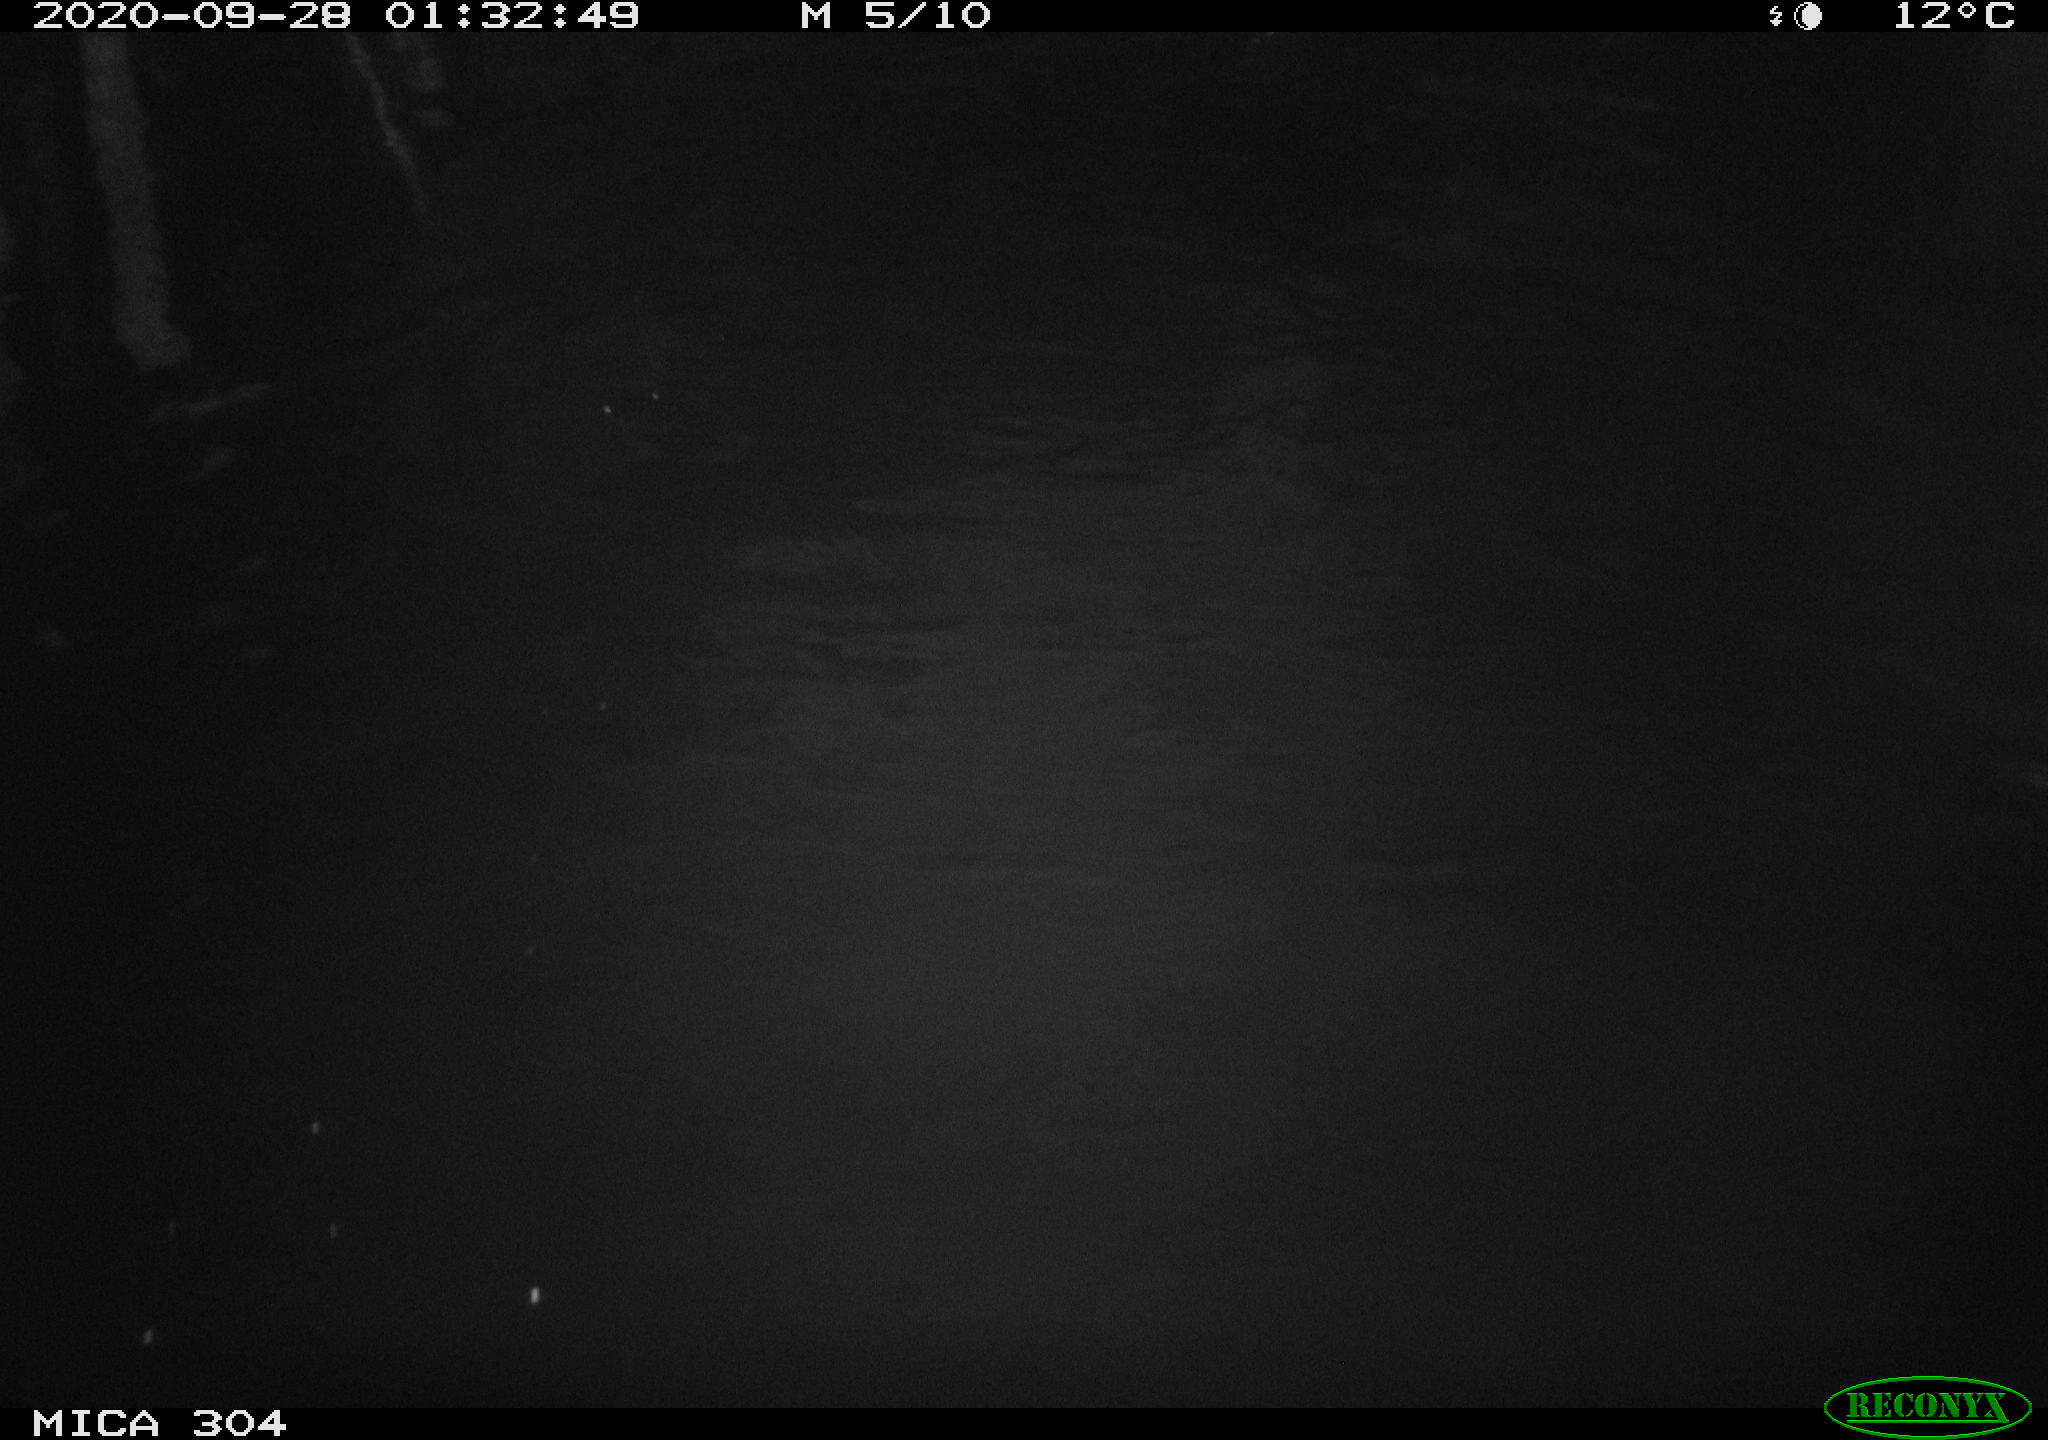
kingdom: Animalia
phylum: Chordata
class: Mammalia
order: Rodentia
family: Cricetidae
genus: Ondatra
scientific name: Ondatra zibethicus
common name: Muskrat
